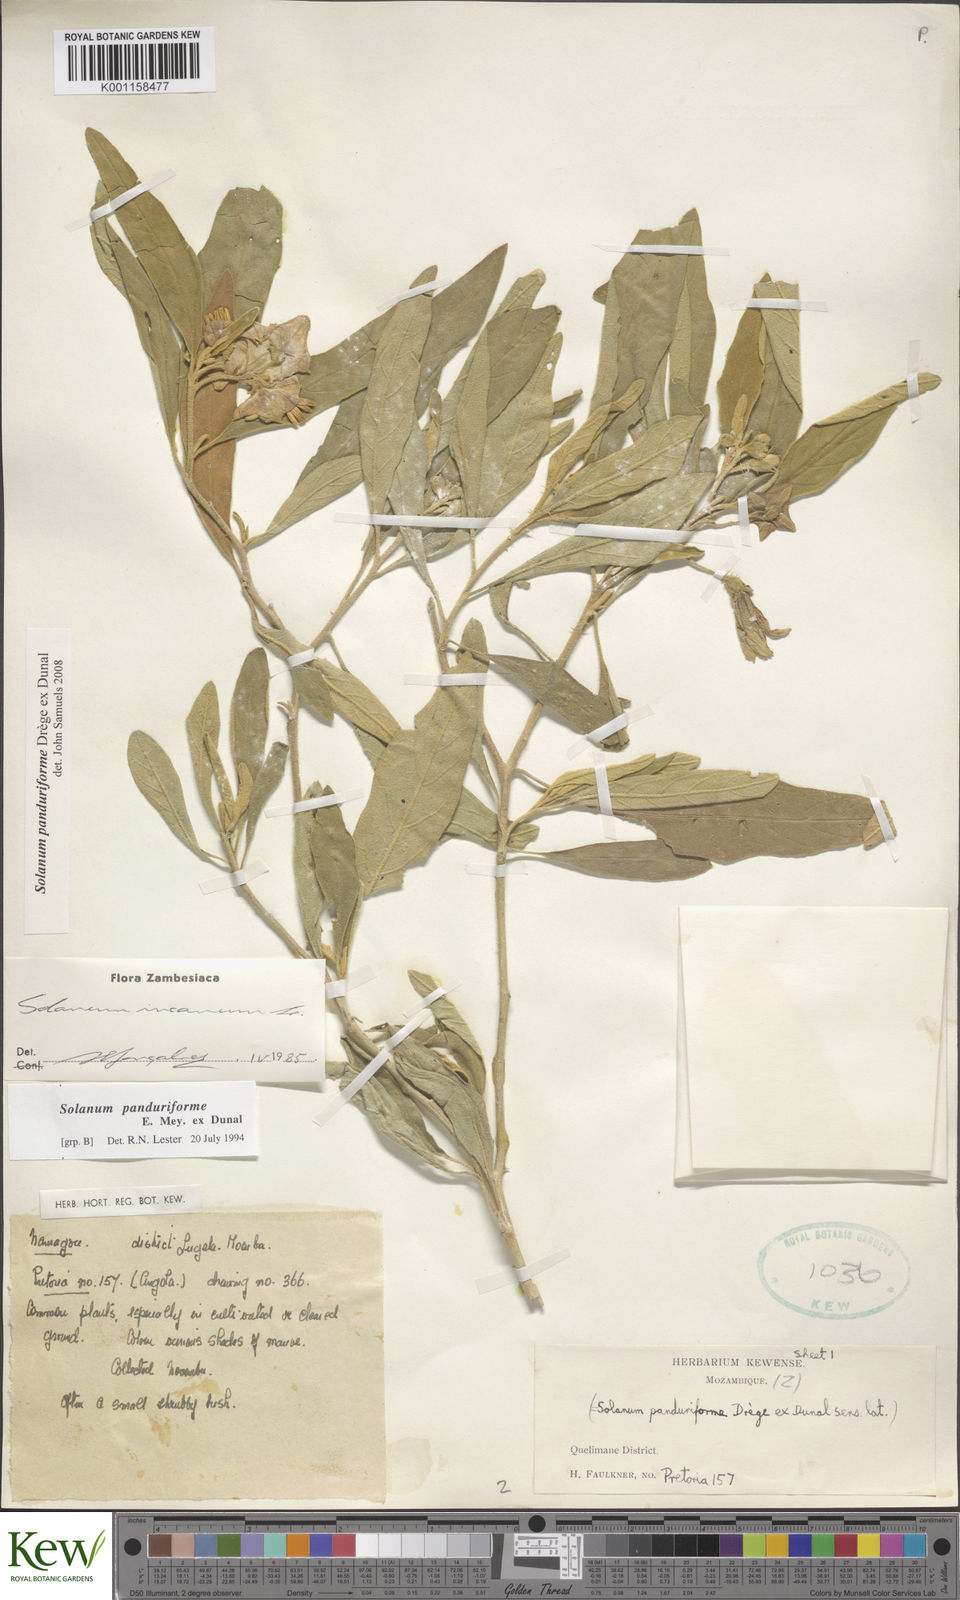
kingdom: Plantae
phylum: Tracheophyta
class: Magnoliopsida
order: Solanales
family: Solanaceae
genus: Solanum
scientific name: Solanum campylacanthum
